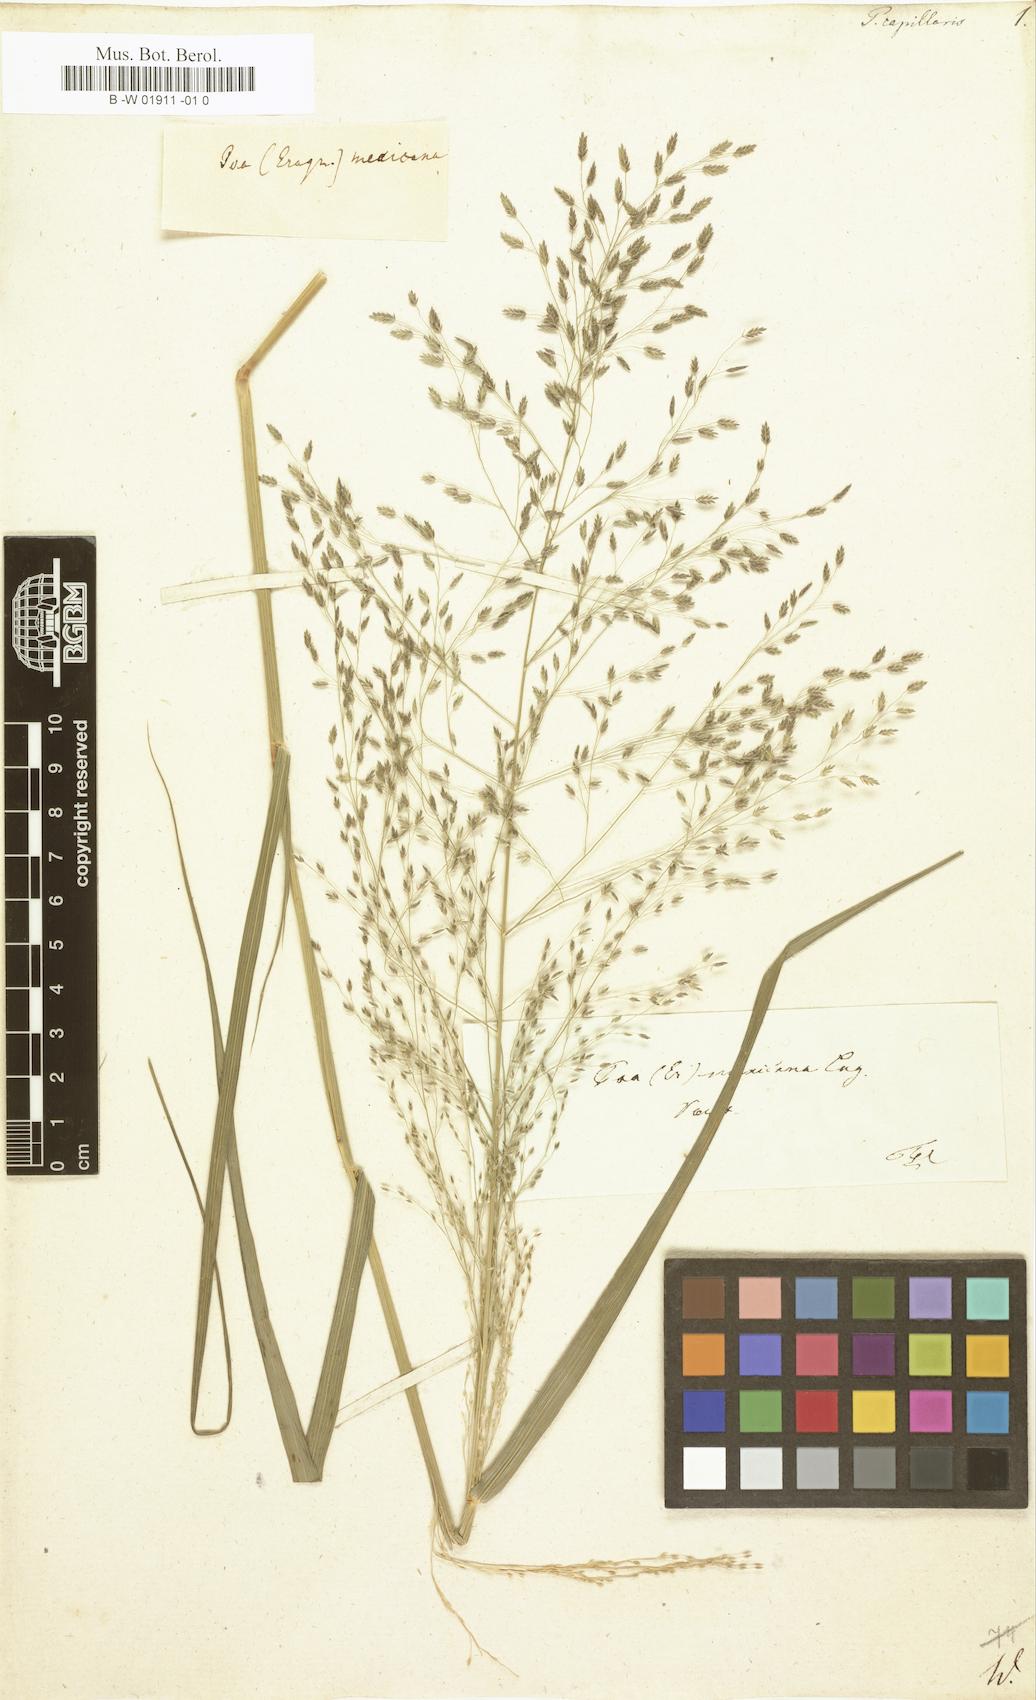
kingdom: Plantae
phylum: Tracheophyta
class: Liliopsida
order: Poales
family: Poaceae
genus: Poa
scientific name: Poa capillaris
